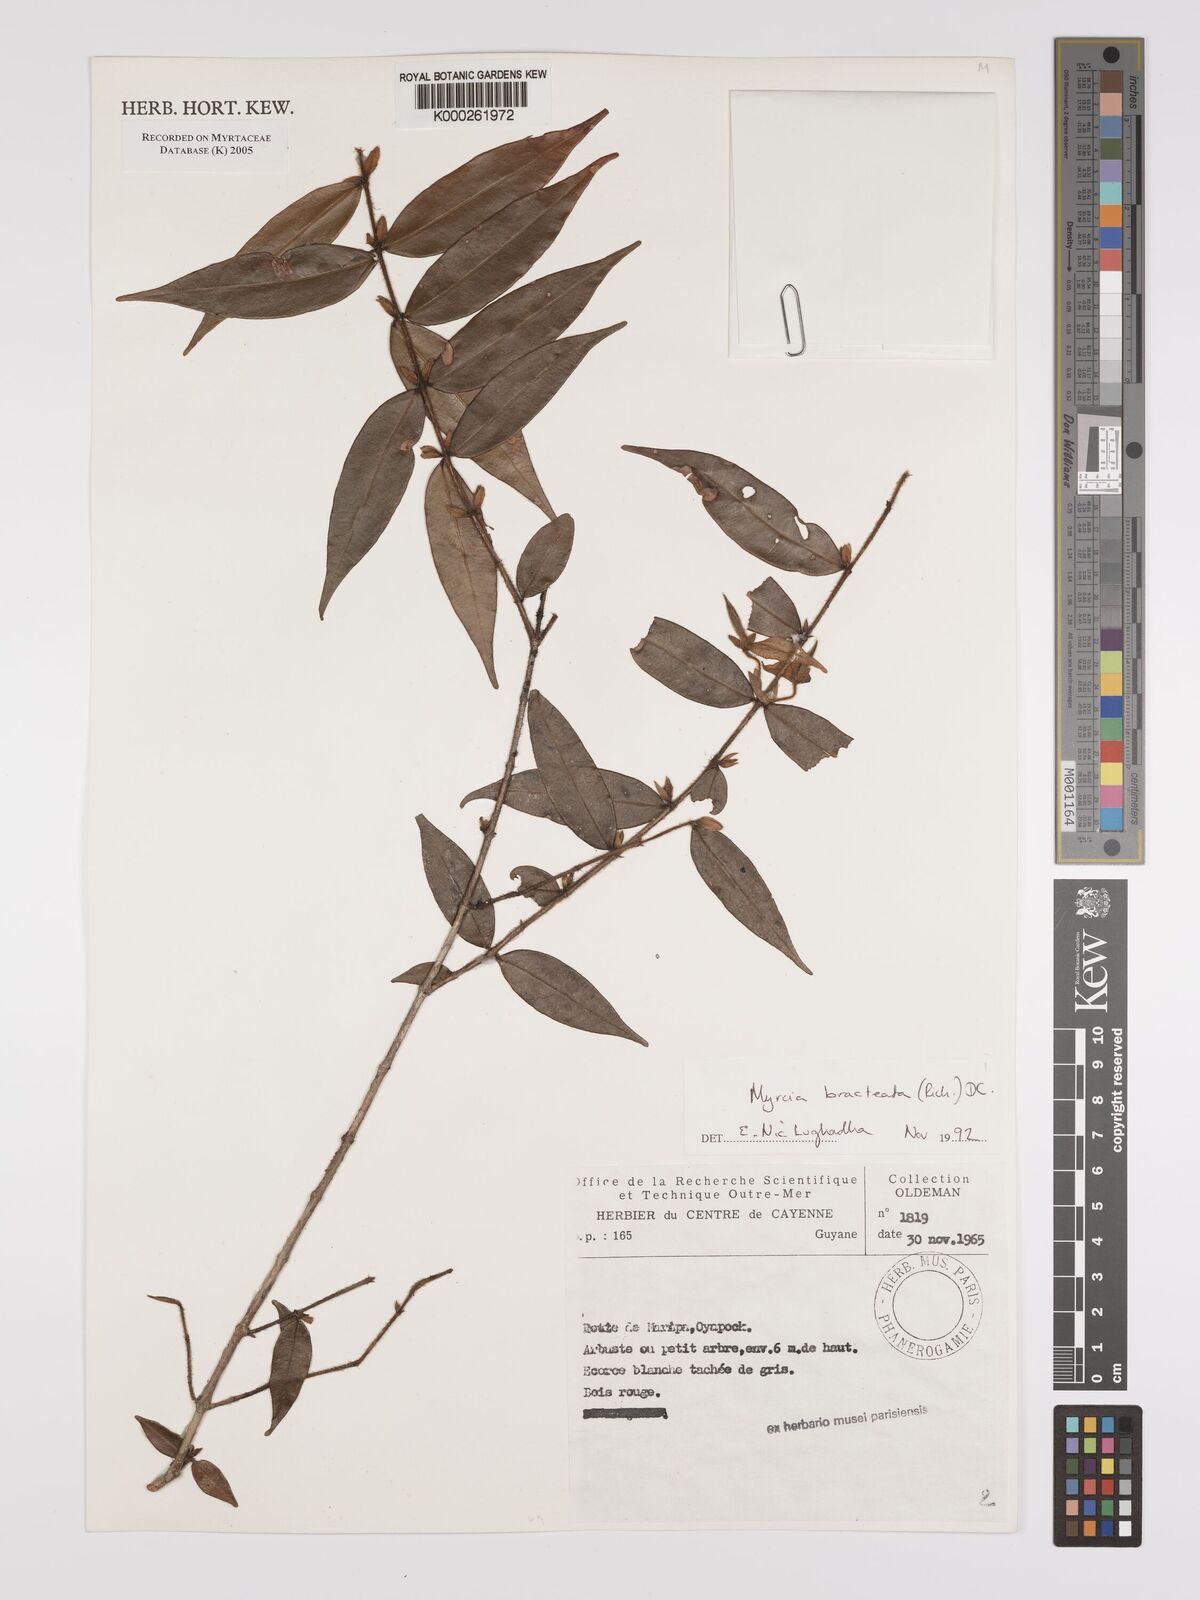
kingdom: Plantae
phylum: Tracheophyta
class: Magnoliopsida
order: Myrtales
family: Myrtaceae
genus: Myrcia
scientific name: Myrcia bracteata
